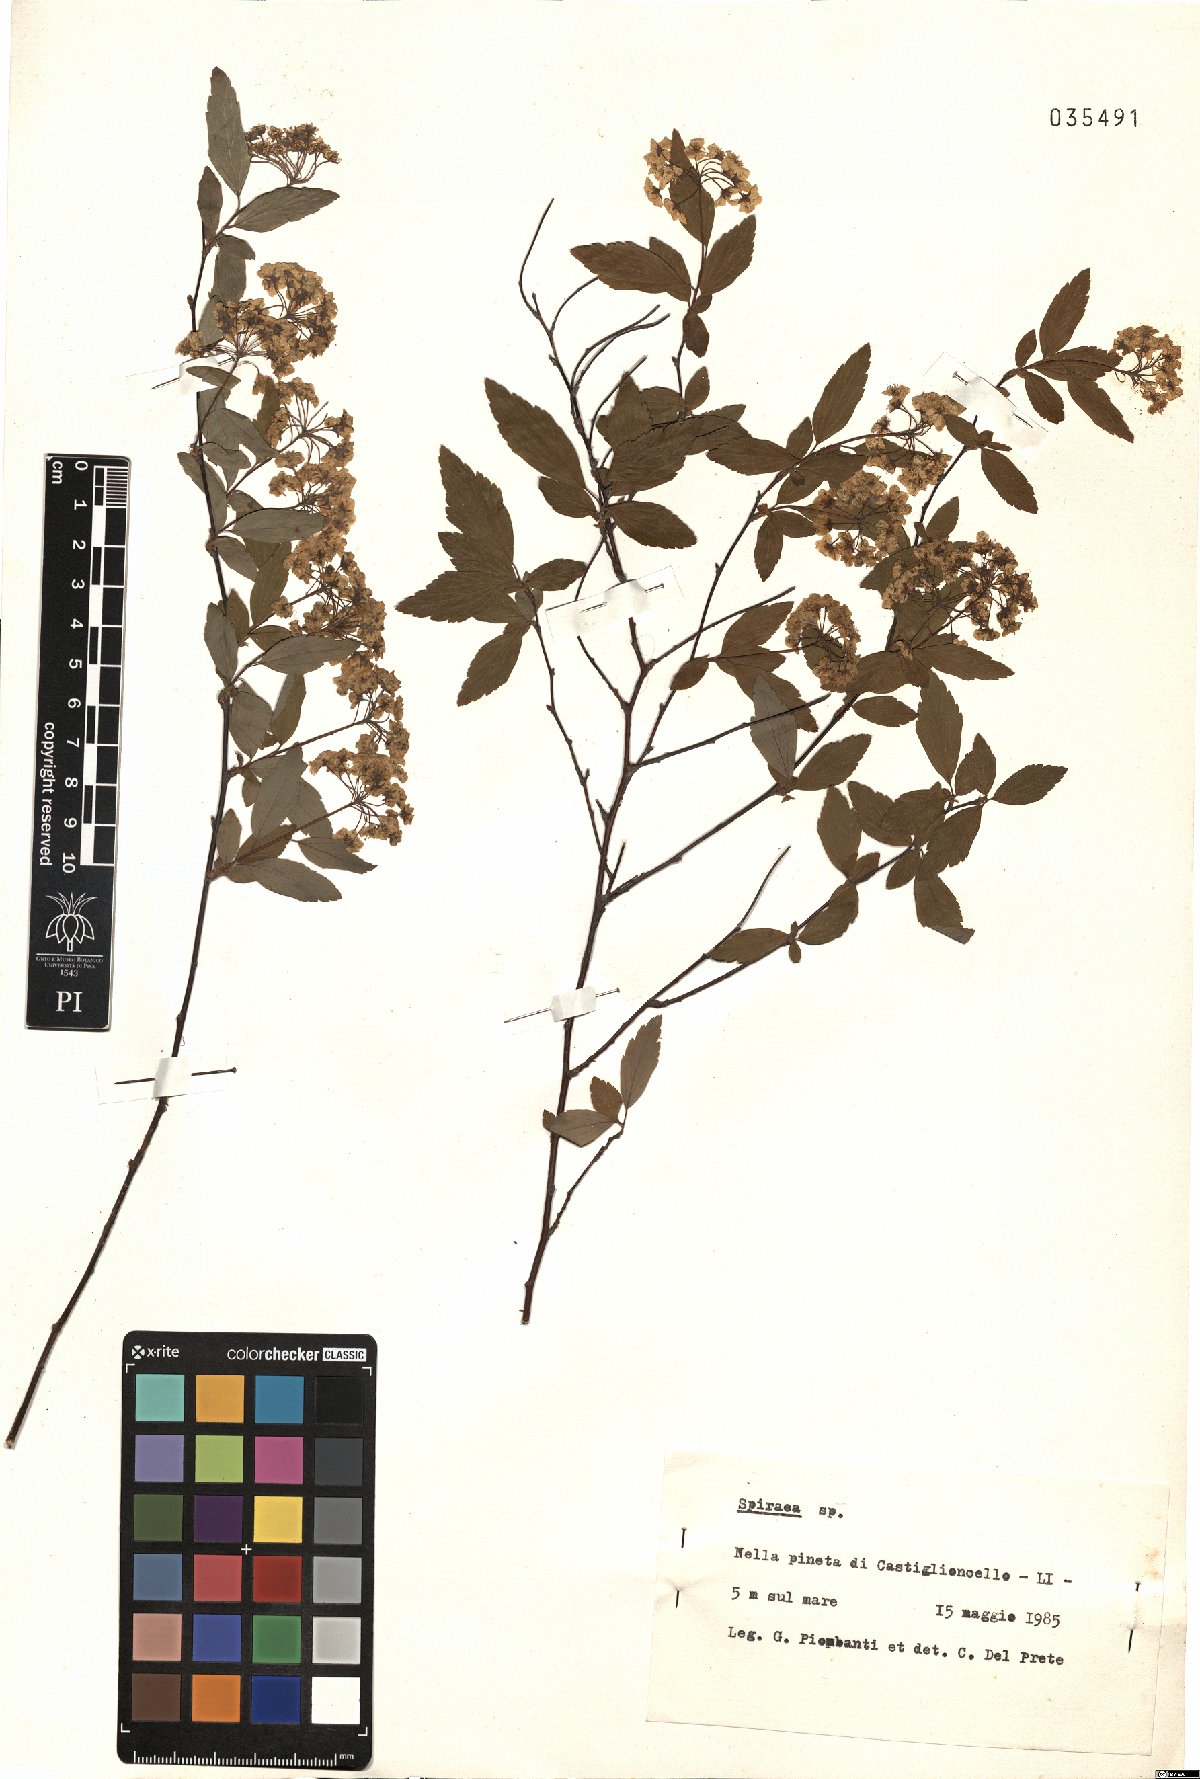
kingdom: Plantae
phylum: Tracheophyta
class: Magnoliopsida
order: Rosales
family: Rosaceae
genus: Spiraea
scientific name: Spiraea
